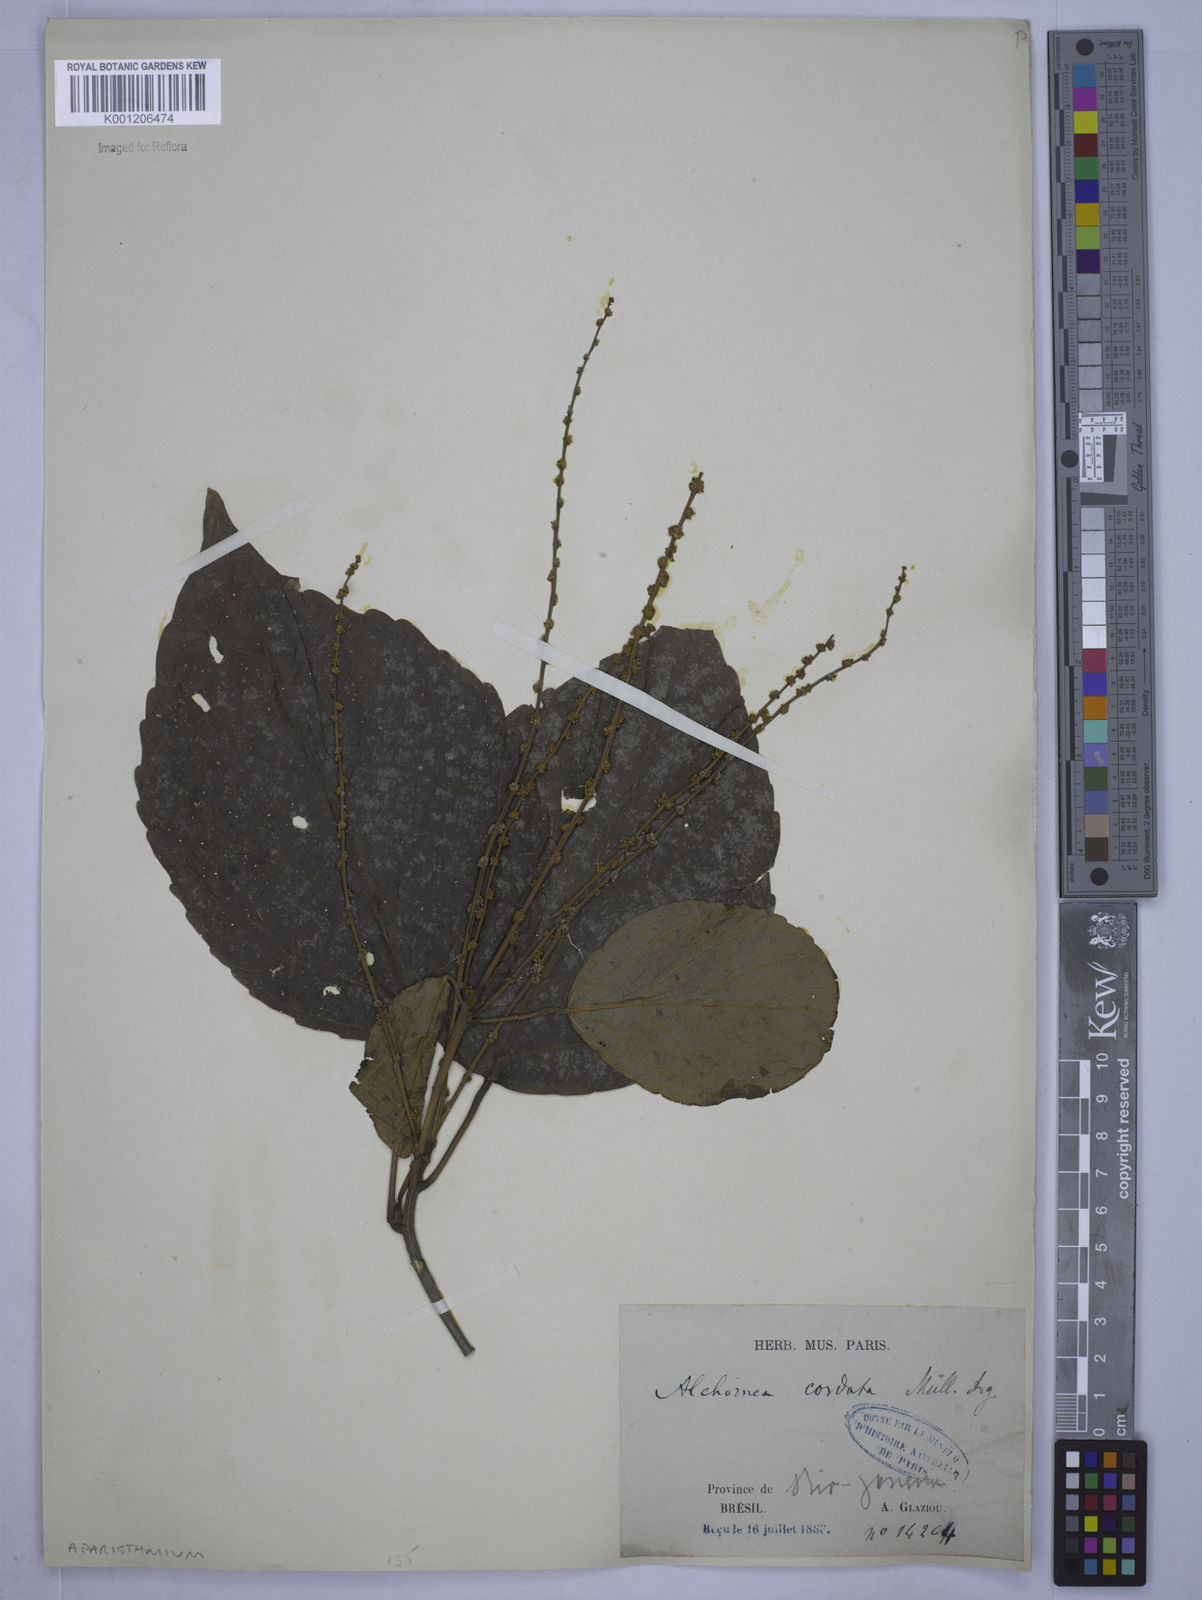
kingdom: Plantae
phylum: Tracheophyta
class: Magnoliopsida
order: Malpighiales
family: Euphorbiaceae
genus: Aparisthmium
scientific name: Aparisthmium cordatum
